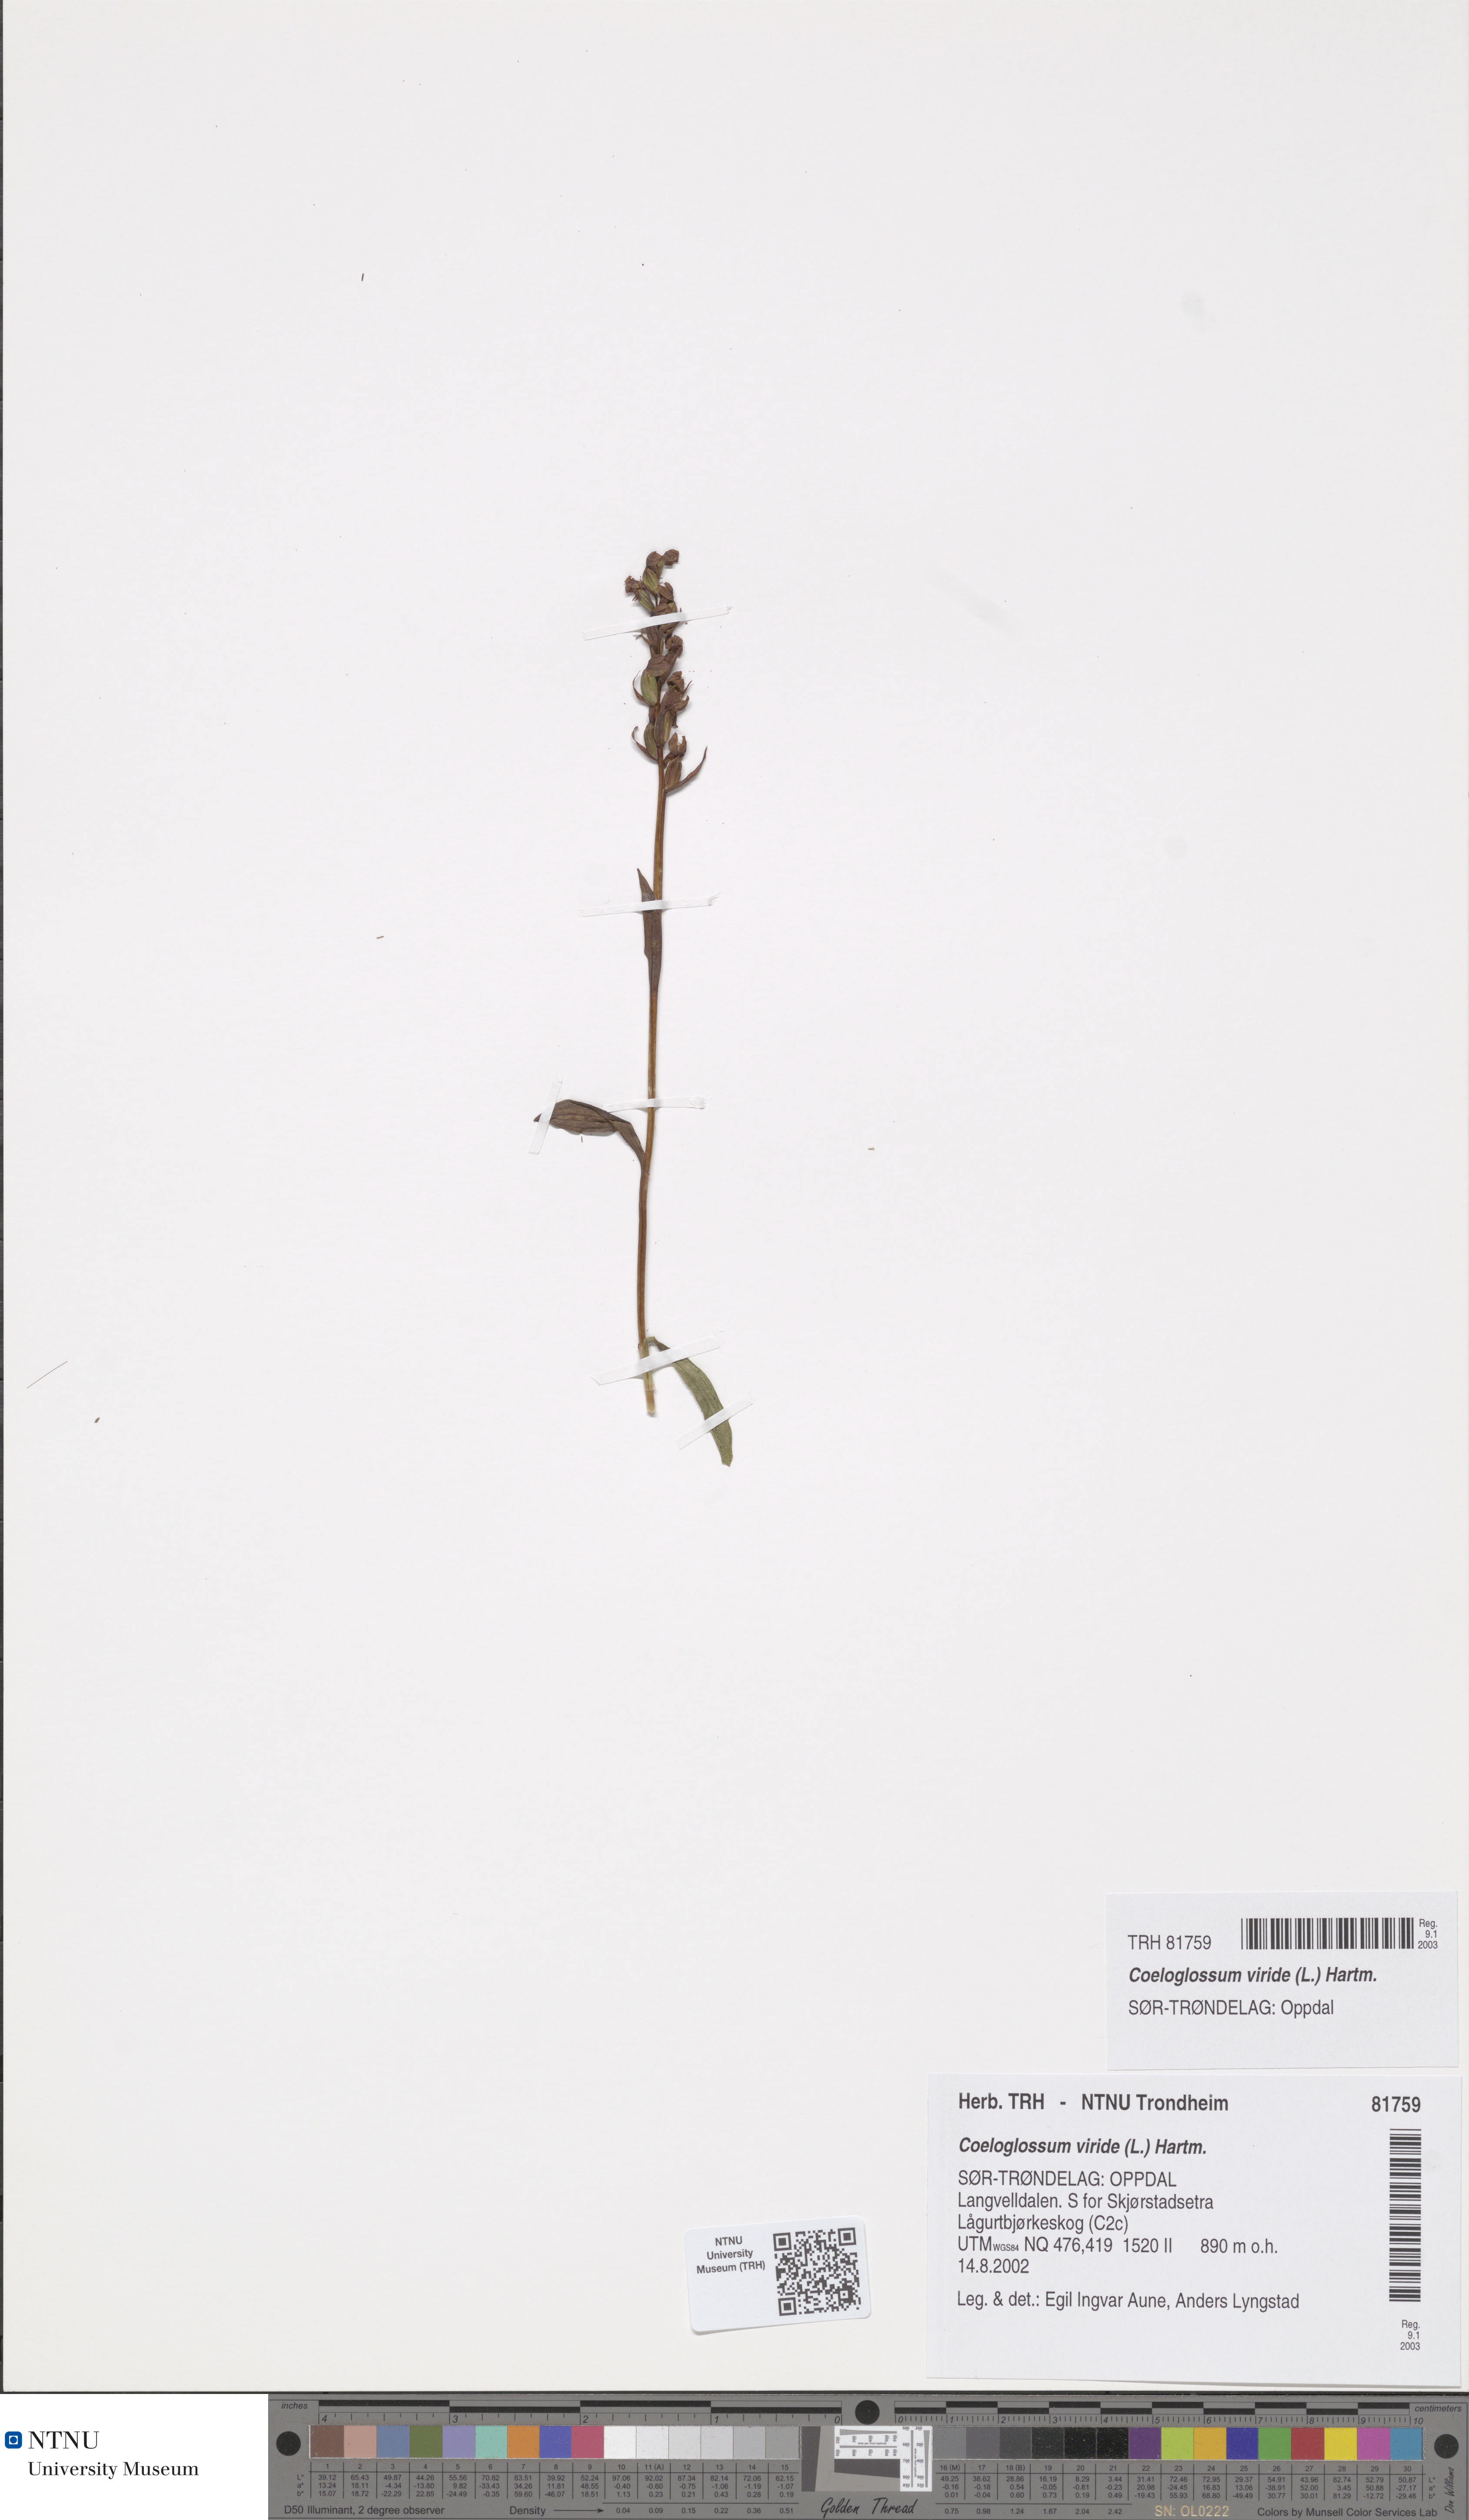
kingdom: Plantae
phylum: Tracheophyta
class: Liliopsida
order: Asparagales
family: Orchidaceae
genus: Dactylorhiza
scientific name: Dactylorhiza viridis
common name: Longbract frog orchid
